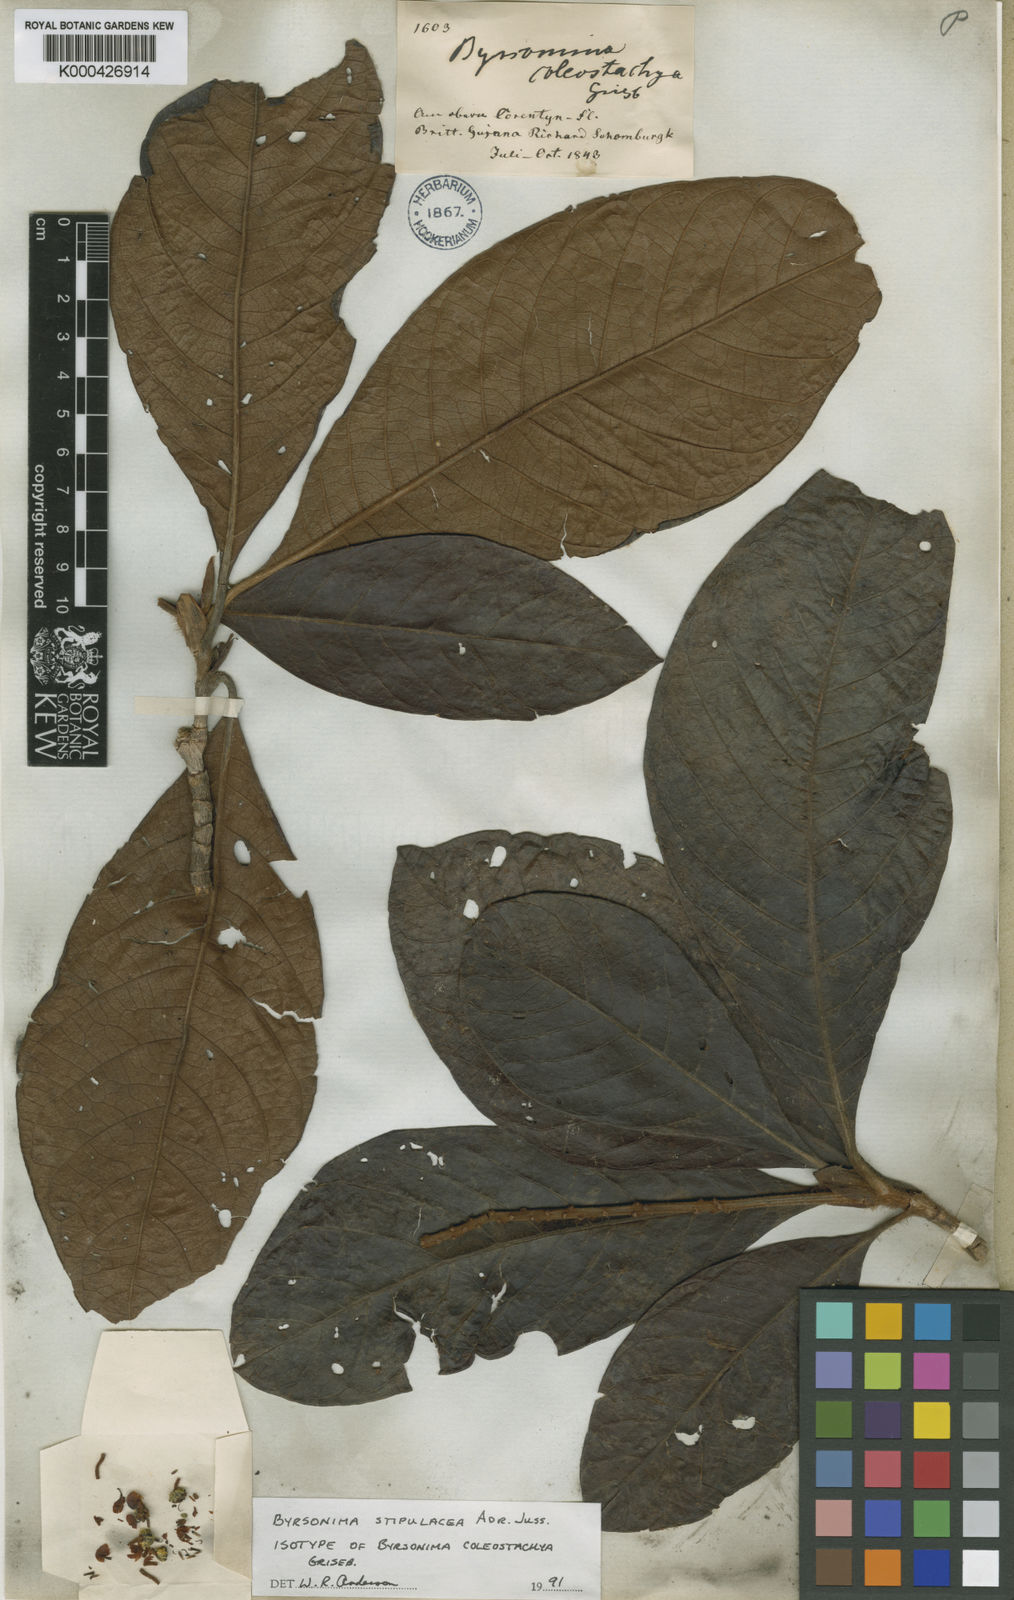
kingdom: Plantae
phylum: Tracheophyta
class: Magnoliopsida
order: Malpighiales
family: Malpighiaceae
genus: Byrsonima
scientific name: Byrsonima stipulacea
